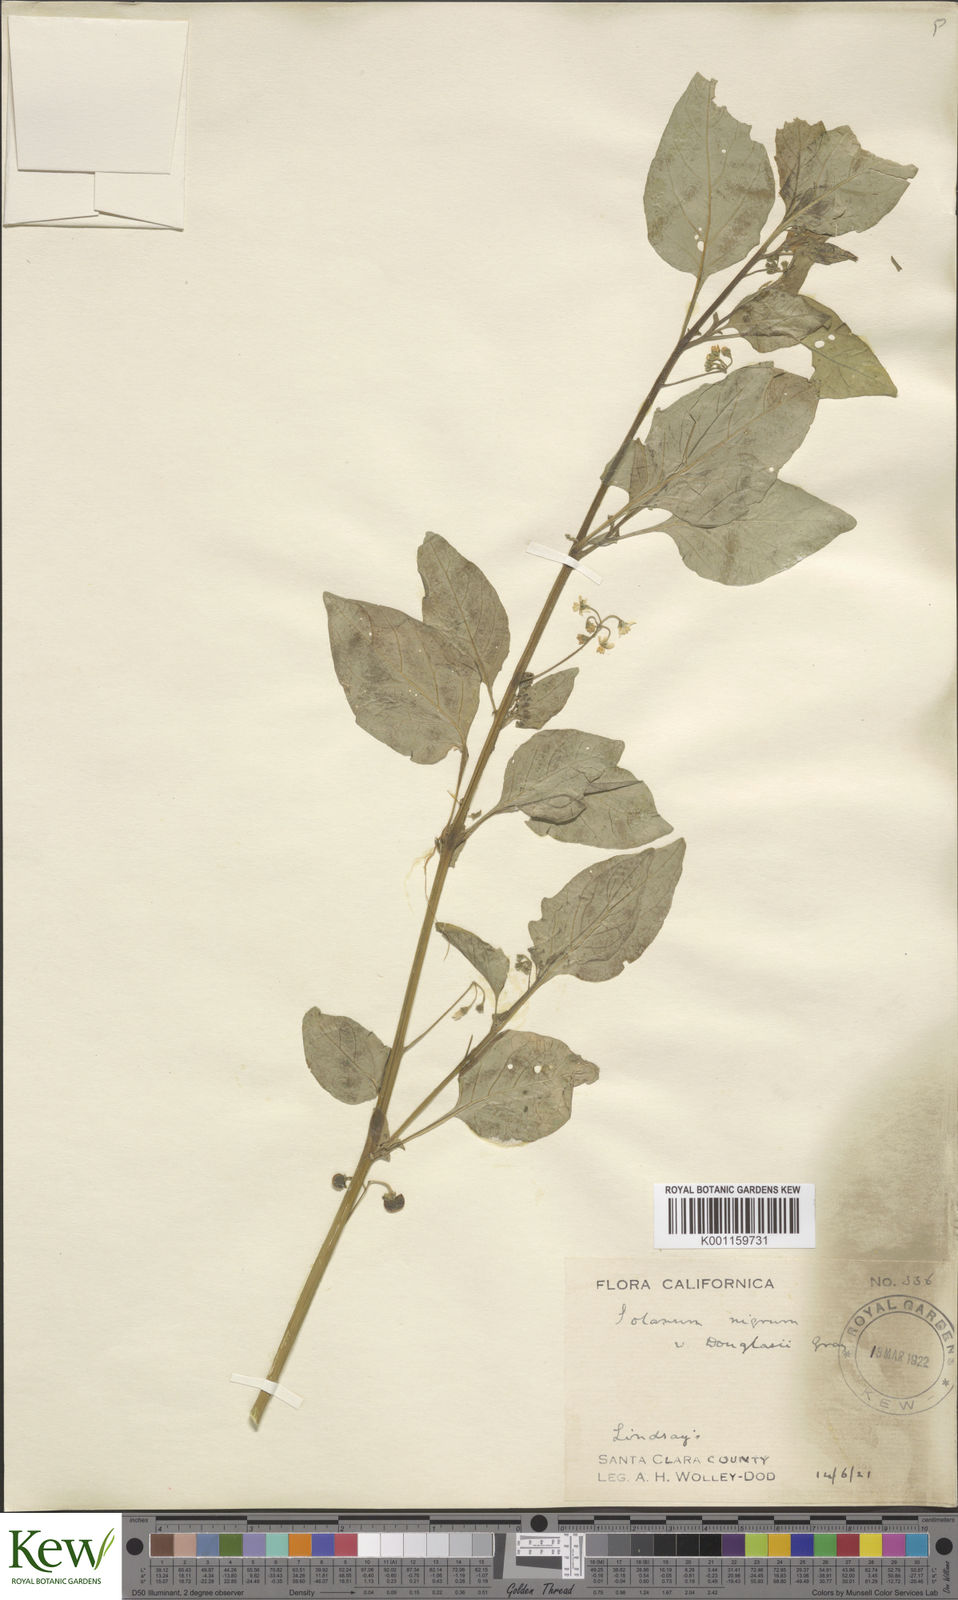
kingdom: Plantae
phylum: Tracheophyta
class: Magnoliopsida
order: Solanales
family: Solanaceae
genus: Solanum
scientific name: Solanum americanum
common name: American black nightshade
